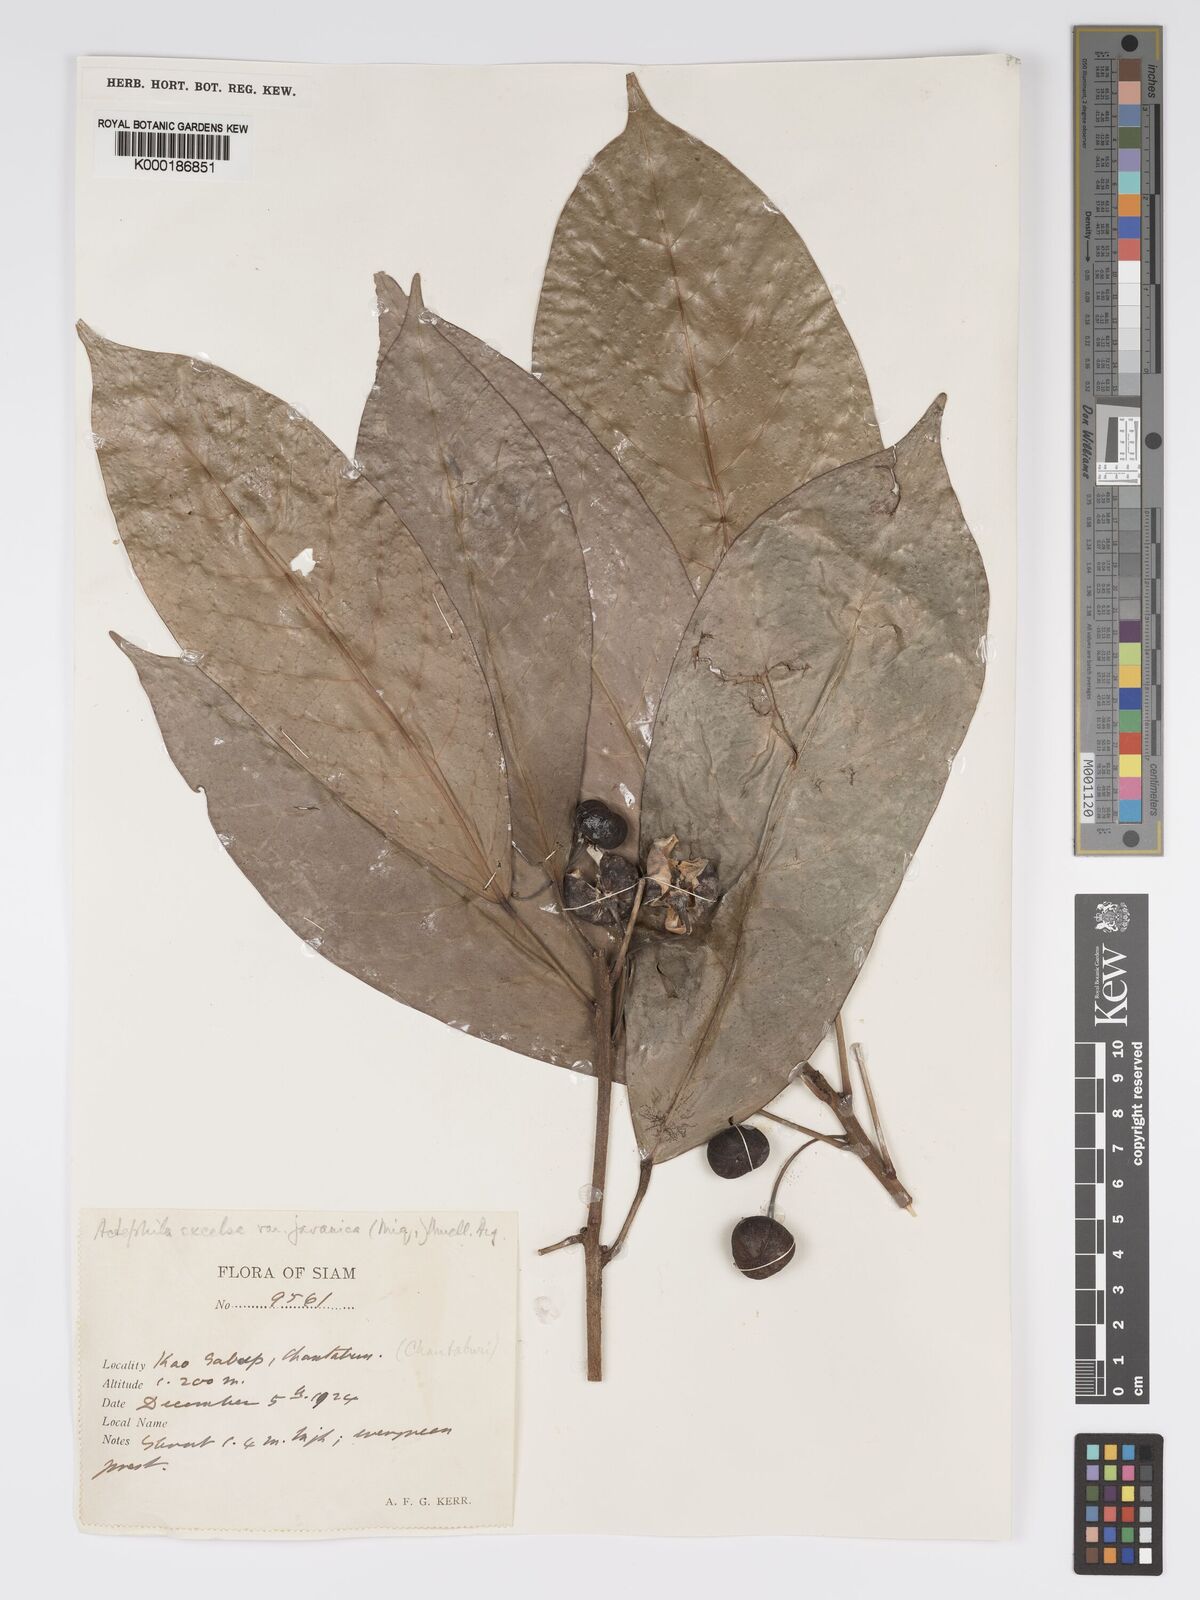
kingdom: Plantae
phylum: Tracheophyta
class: Magnoliopsida
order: Malpighiales
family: Phyllanthaceae
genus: Actephila
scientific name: Actephila
